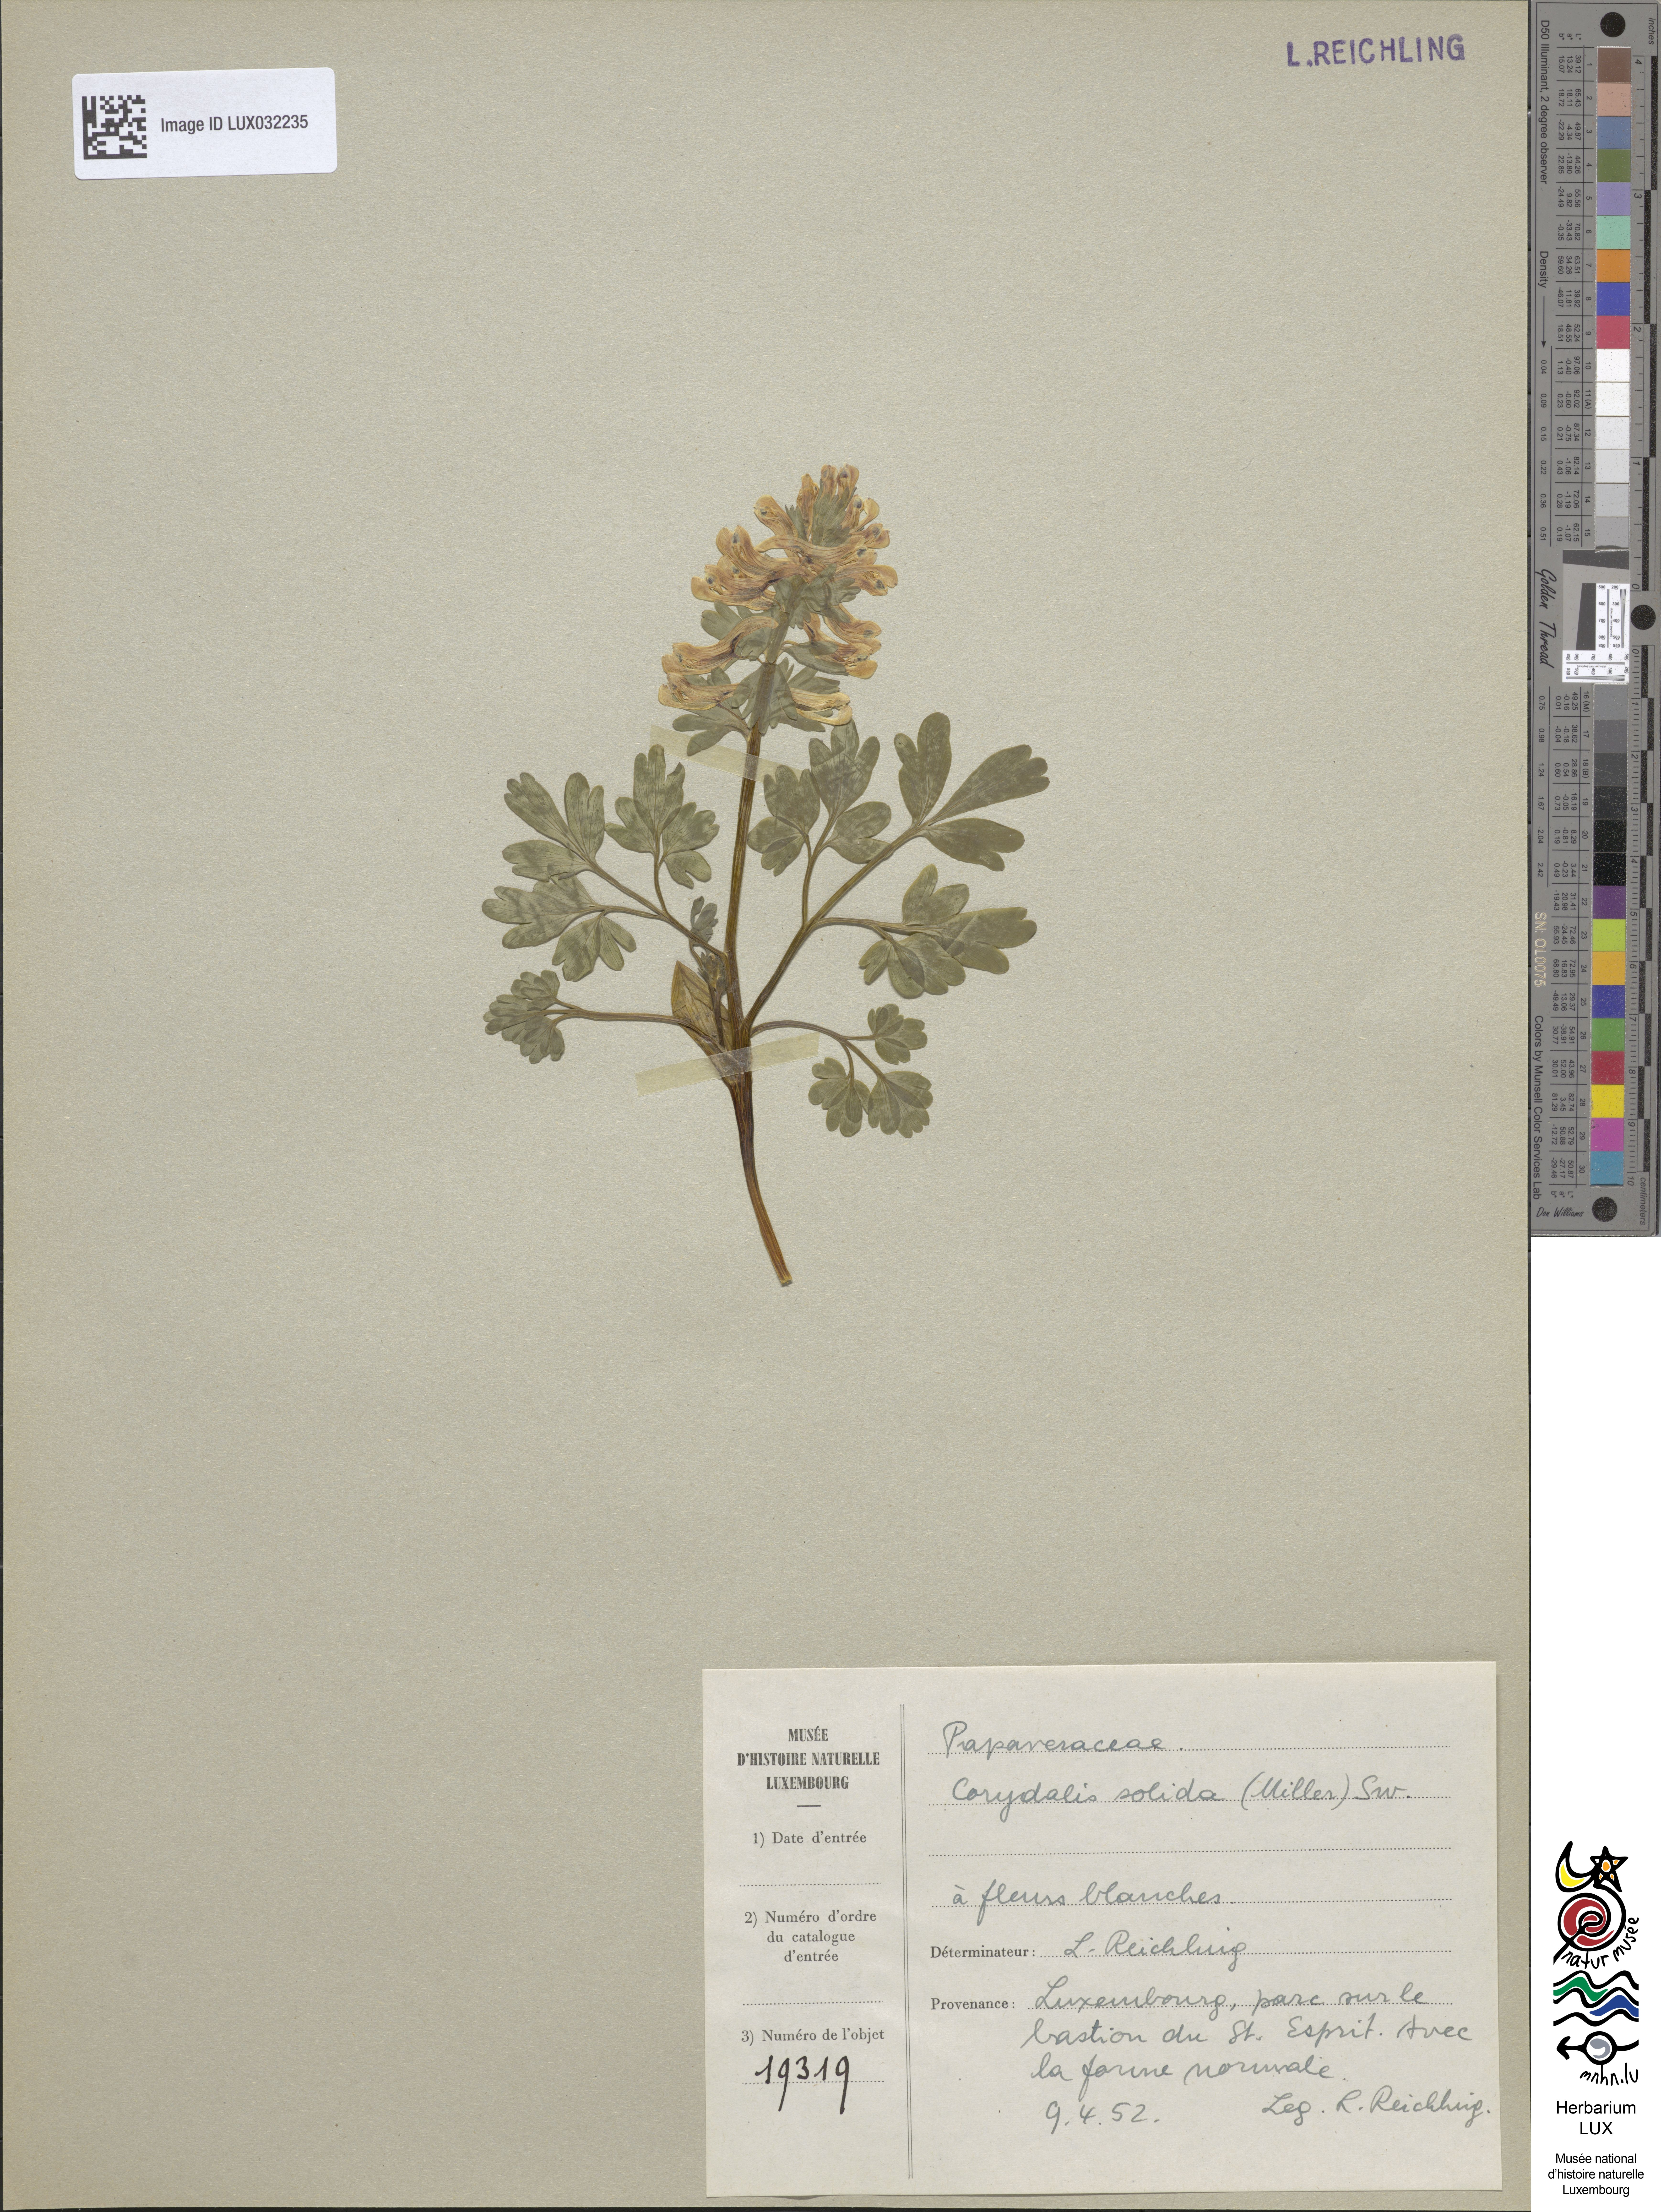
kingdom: Plantae
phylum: Tracheophyta
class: Magnoliopsida
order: Ranunculales
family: Papaveraceae
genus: Corydalis
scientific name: Corydalis solida
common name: Bird-in-a-bush
